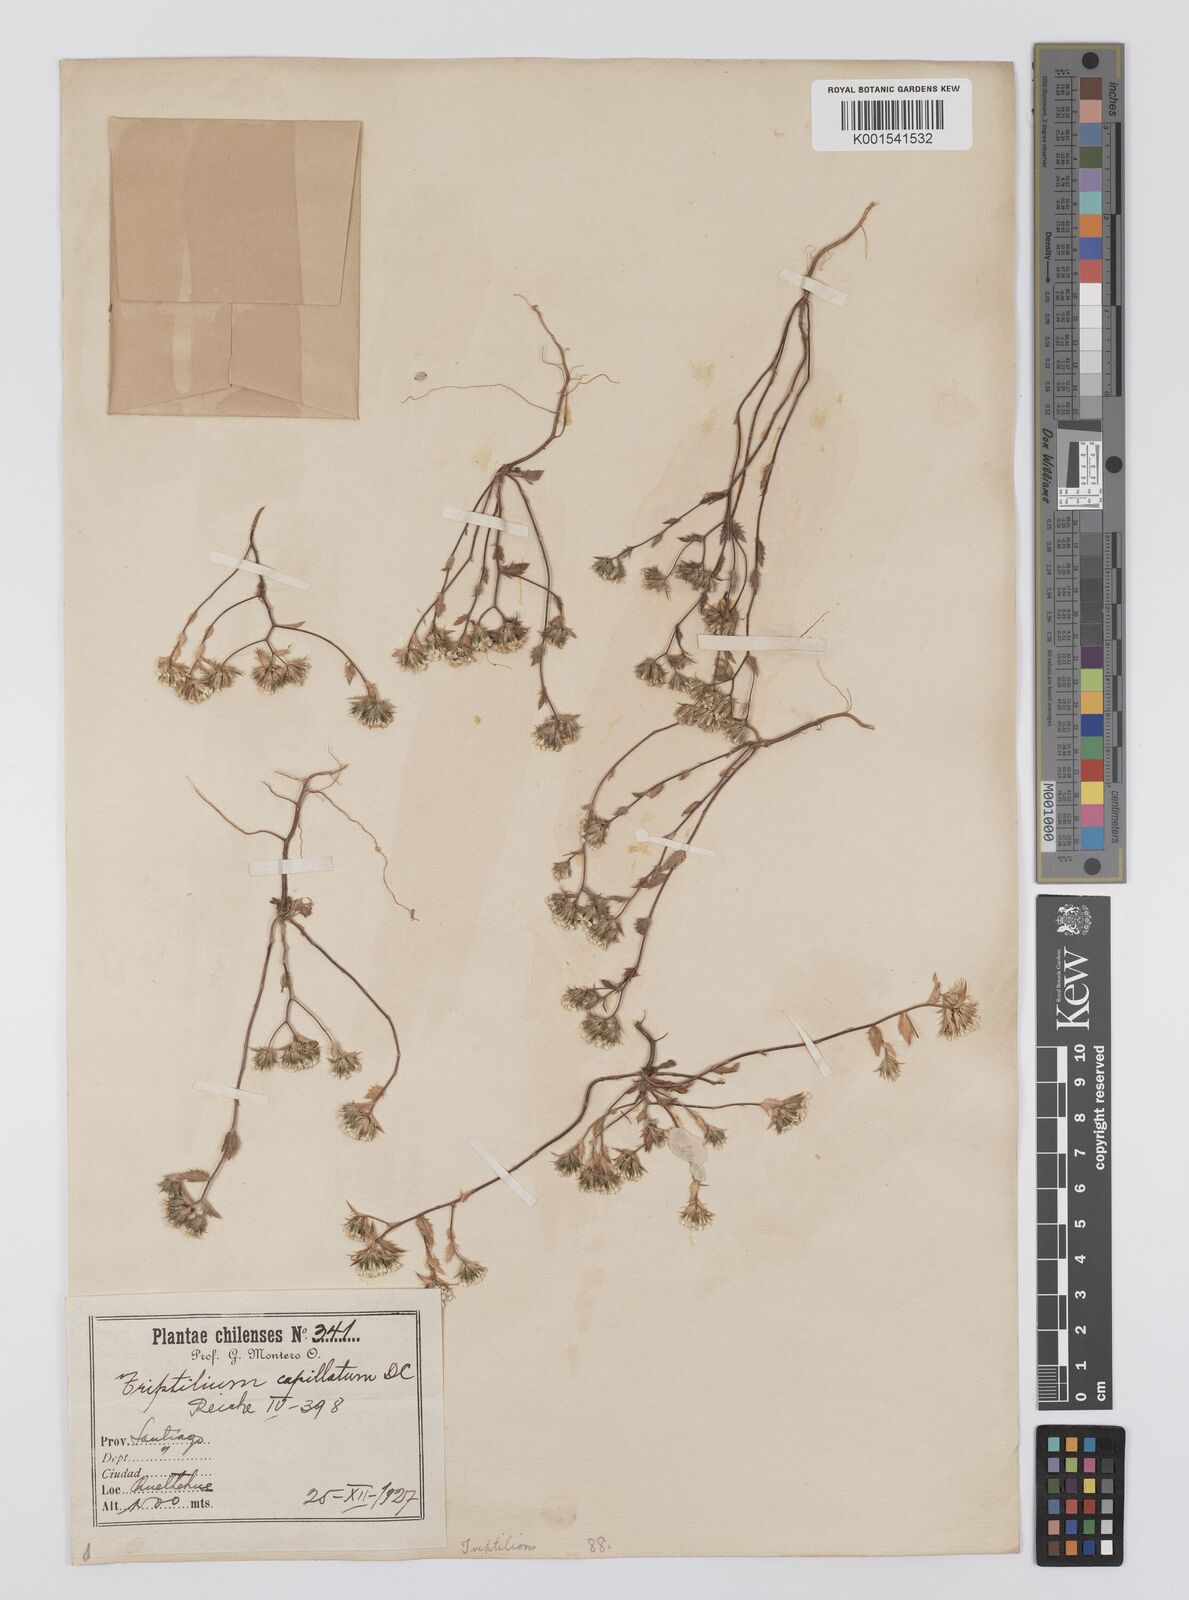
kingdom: Plantae
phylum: Tracheophyta
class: Magnoliopsida
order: Asterales
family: Asteraceae
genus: Triptilion
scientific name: Triptilion capillatum
